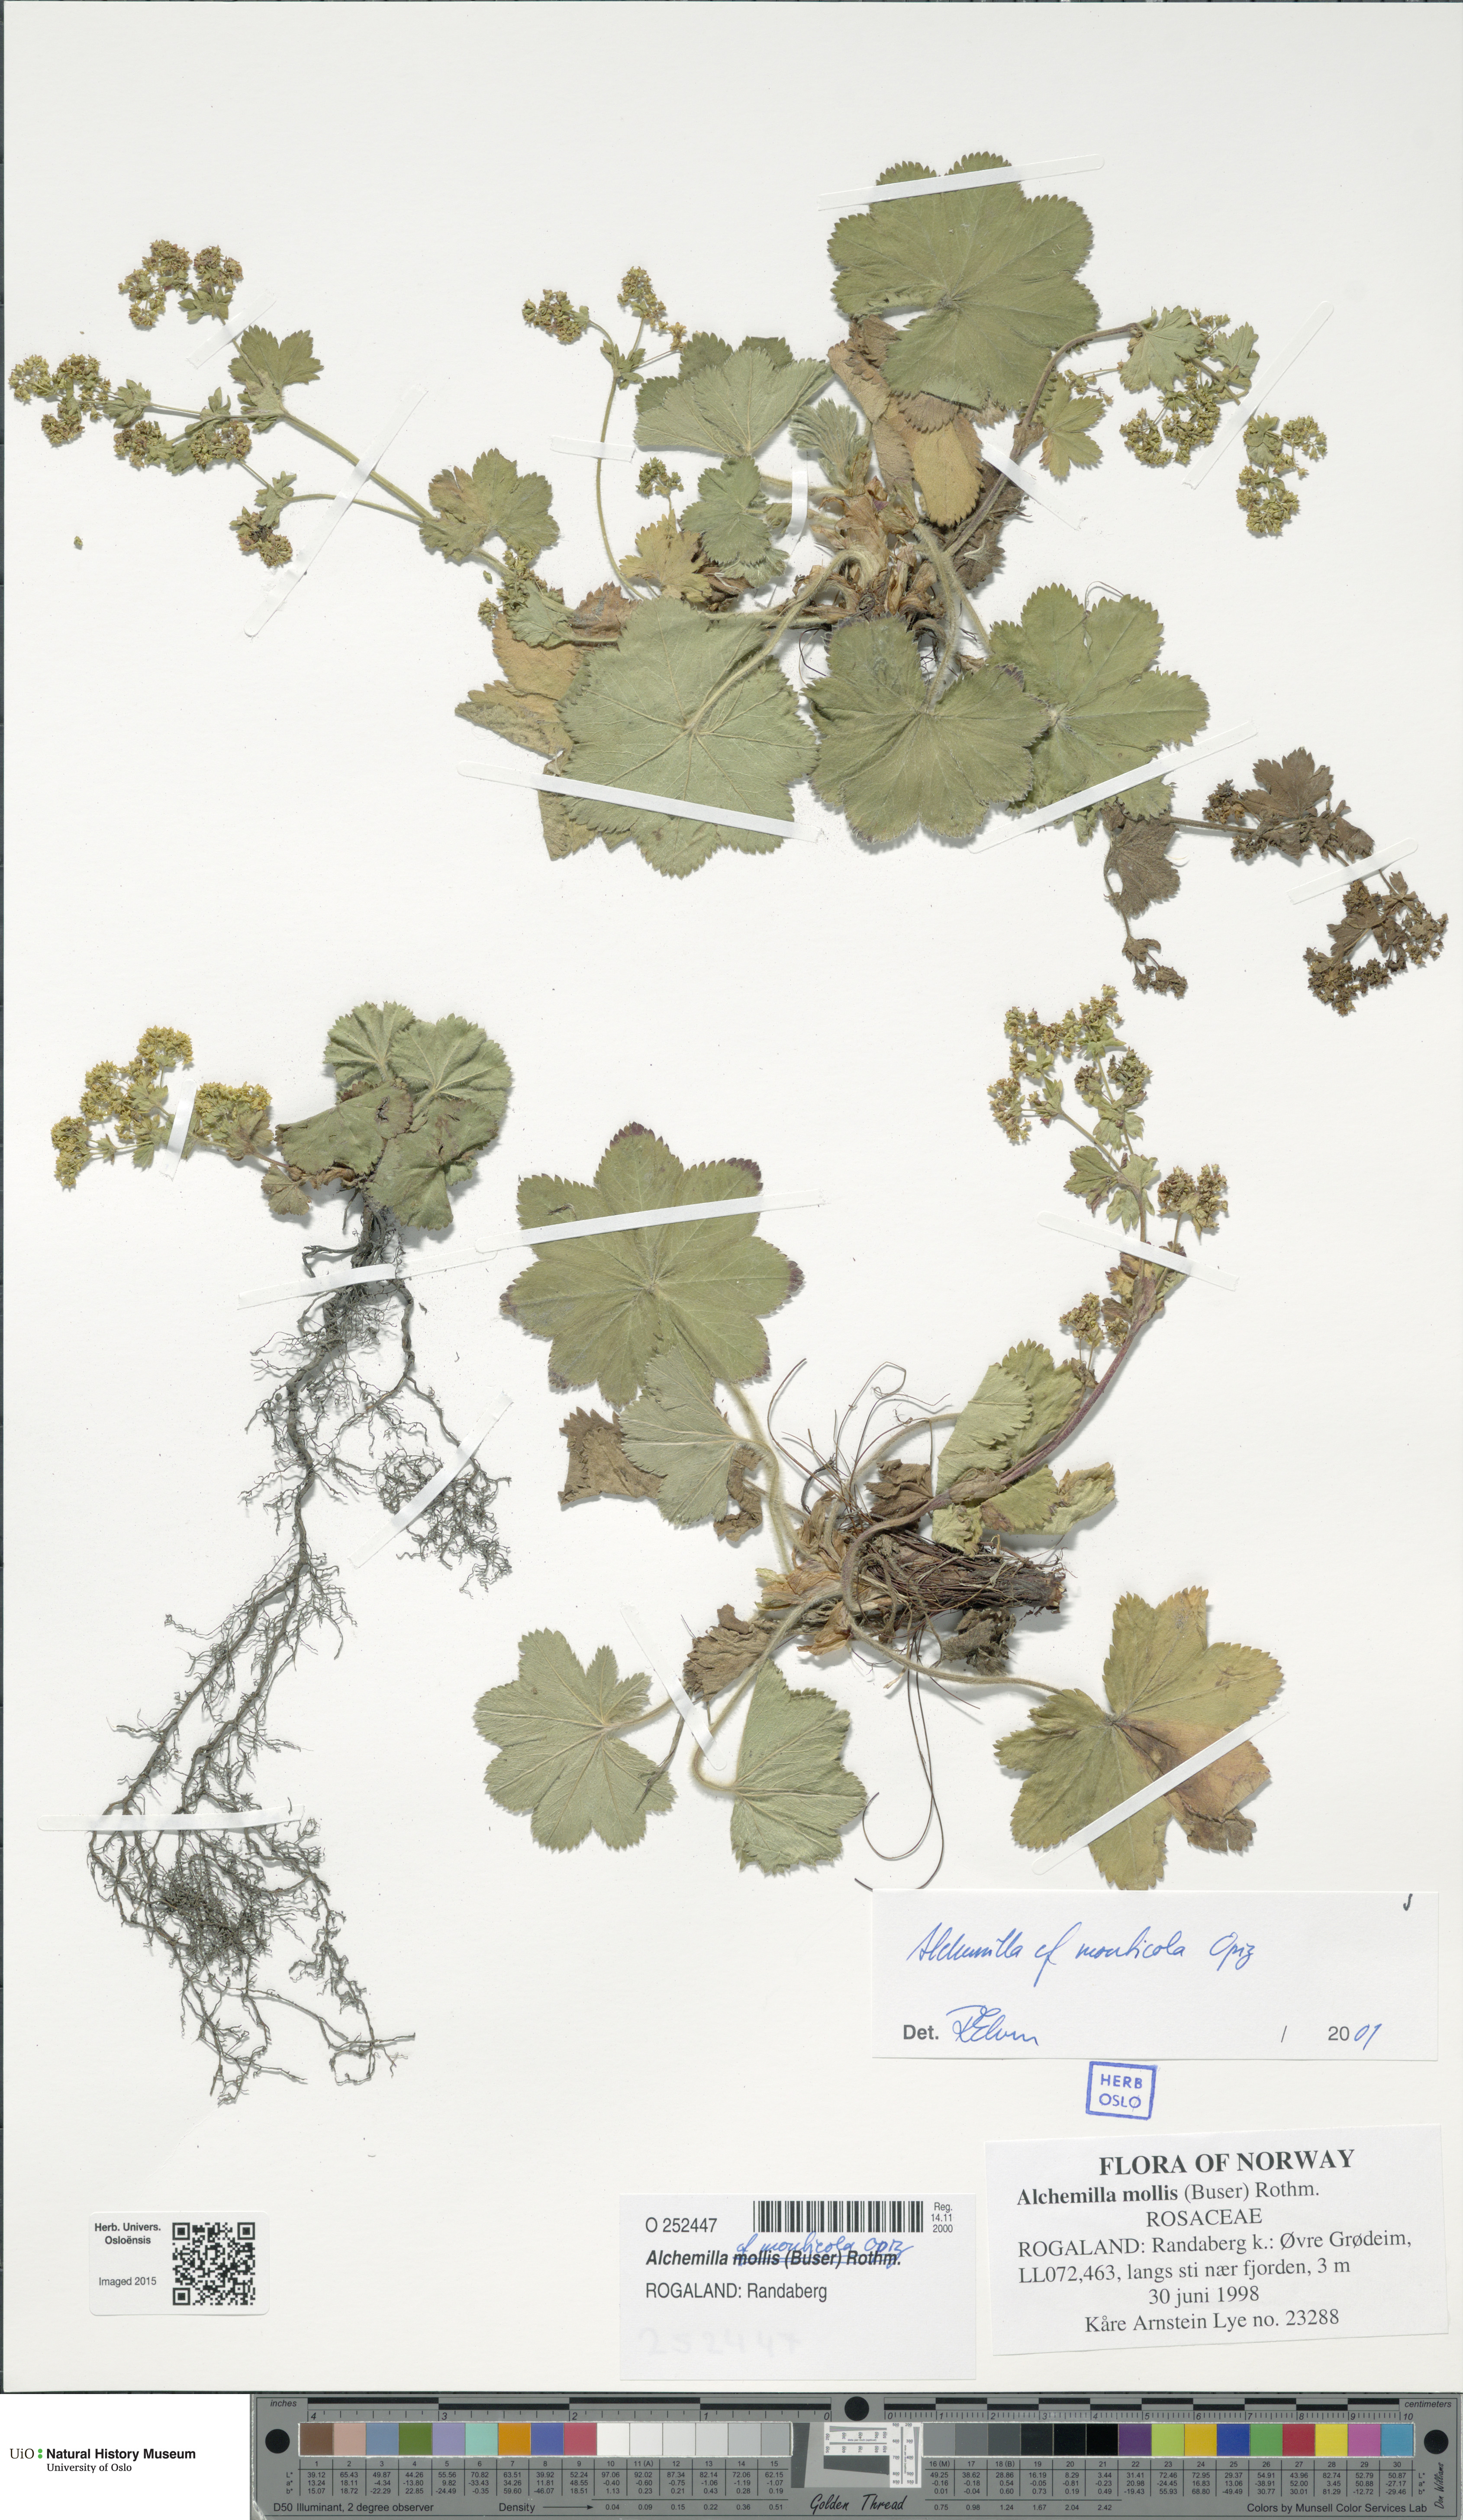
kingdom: Plantae
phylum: Tracheophyta
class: Magnoliopsida
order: Rosales
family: Rosaceae
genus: Alchemilla
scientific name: Alchemilla monticola
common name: Hairy lady's mantle
